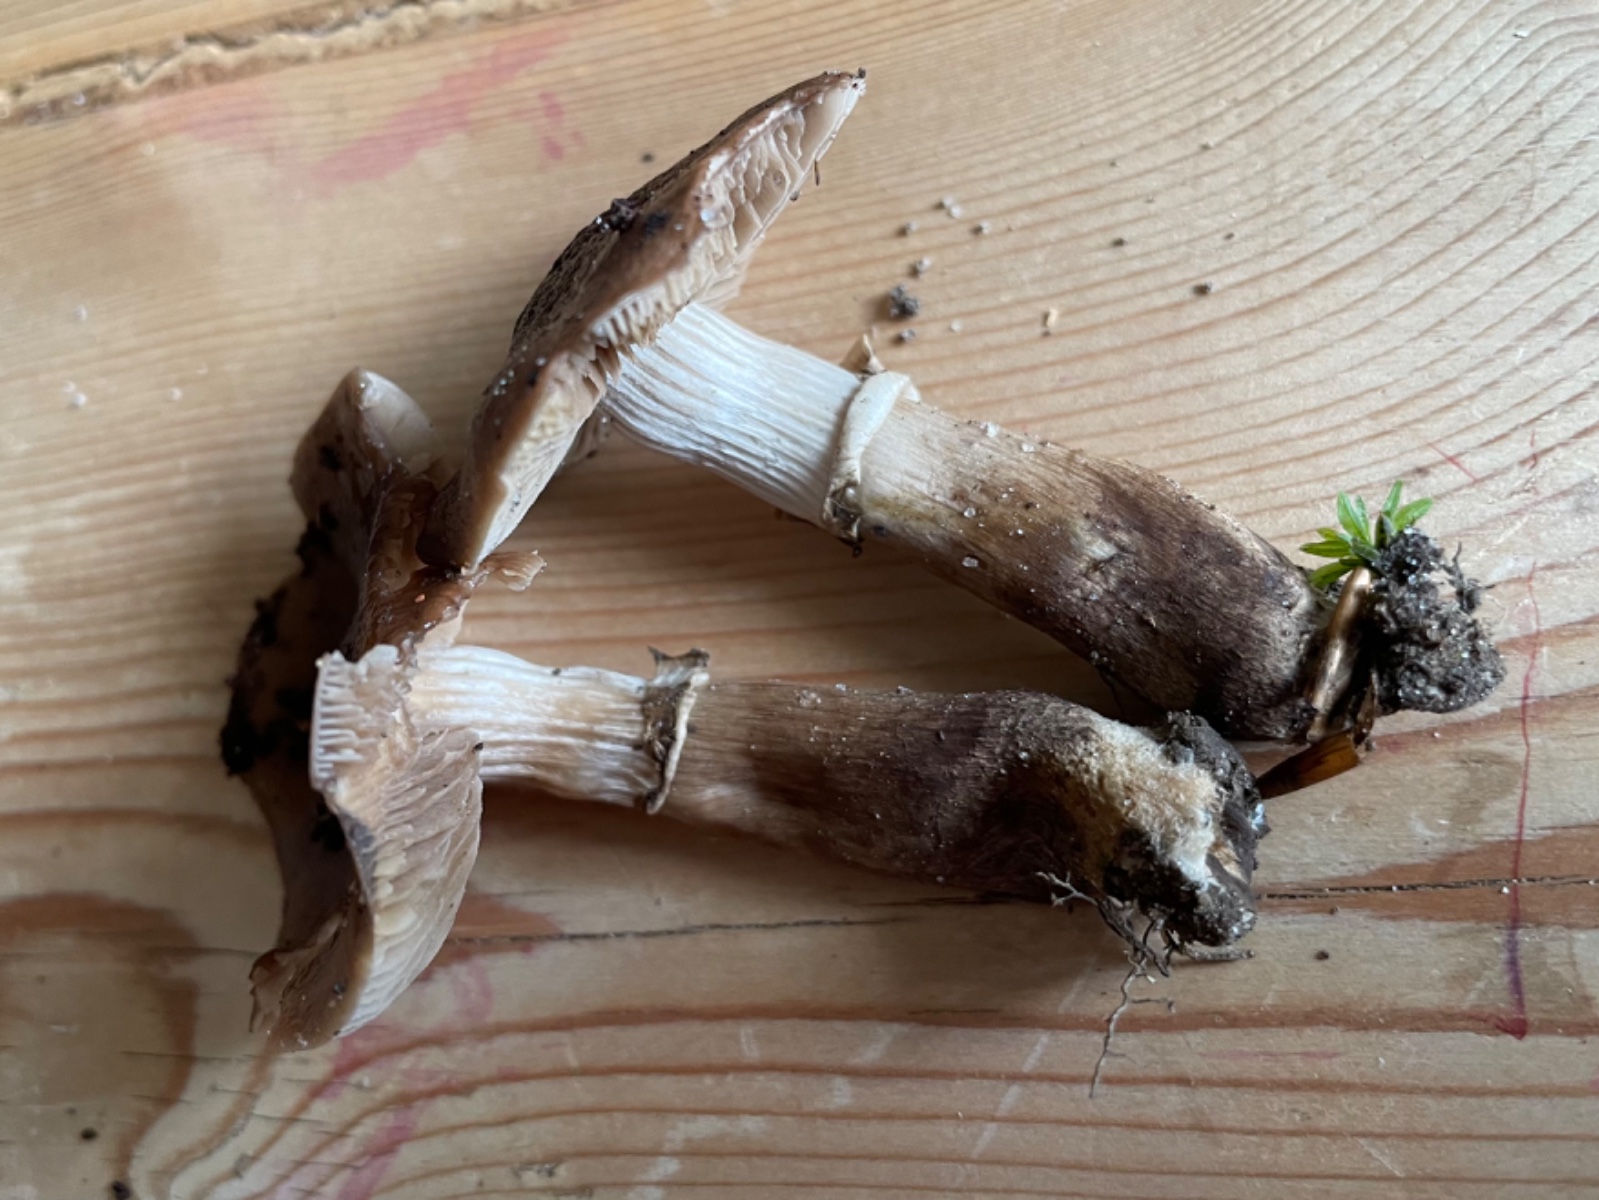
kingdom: Fungi
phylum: Basidiomycota
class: Agaricomycetes
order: Agaricales
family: Tubariaceae
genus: Cyclocybe
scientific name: Cyclocybe erebia
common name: mørk agerhat
